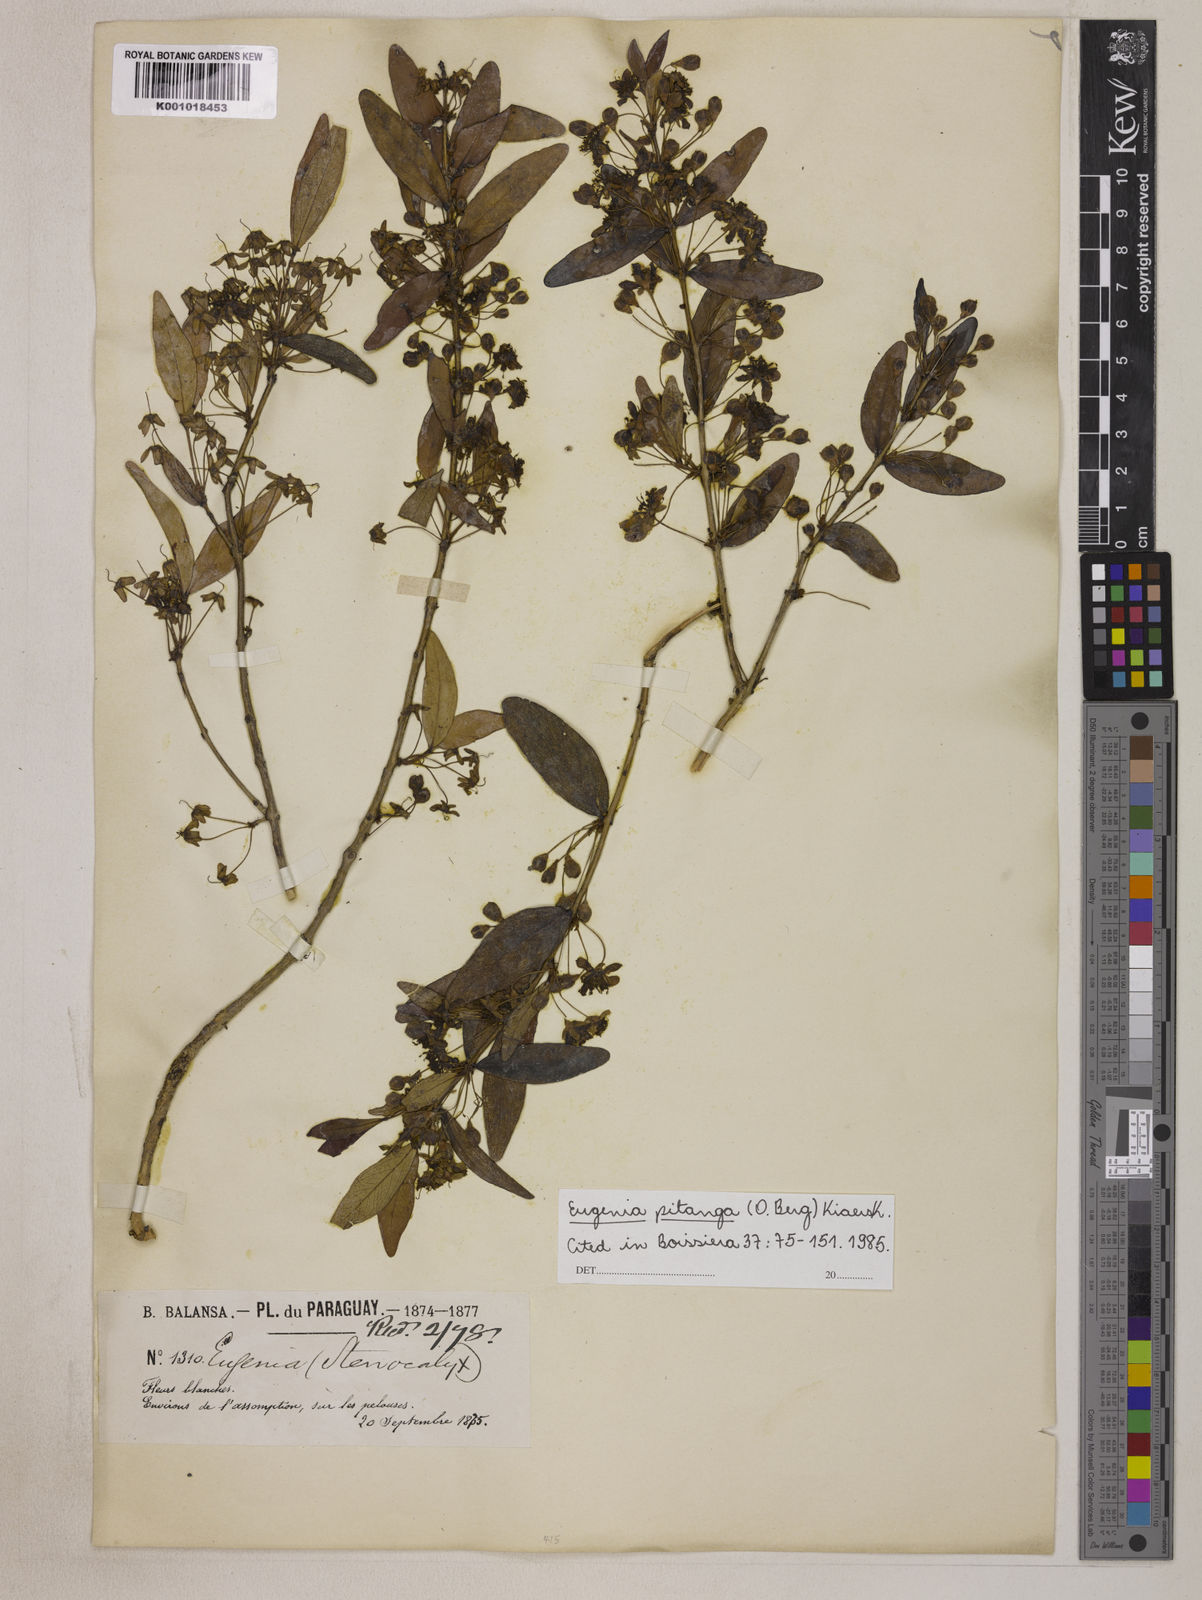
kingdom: Plantae
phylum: Tracheophyta
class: Magnoliopsida
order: Myrtales
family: Myrtaceae
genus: Eugenia
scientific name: Eugenia
